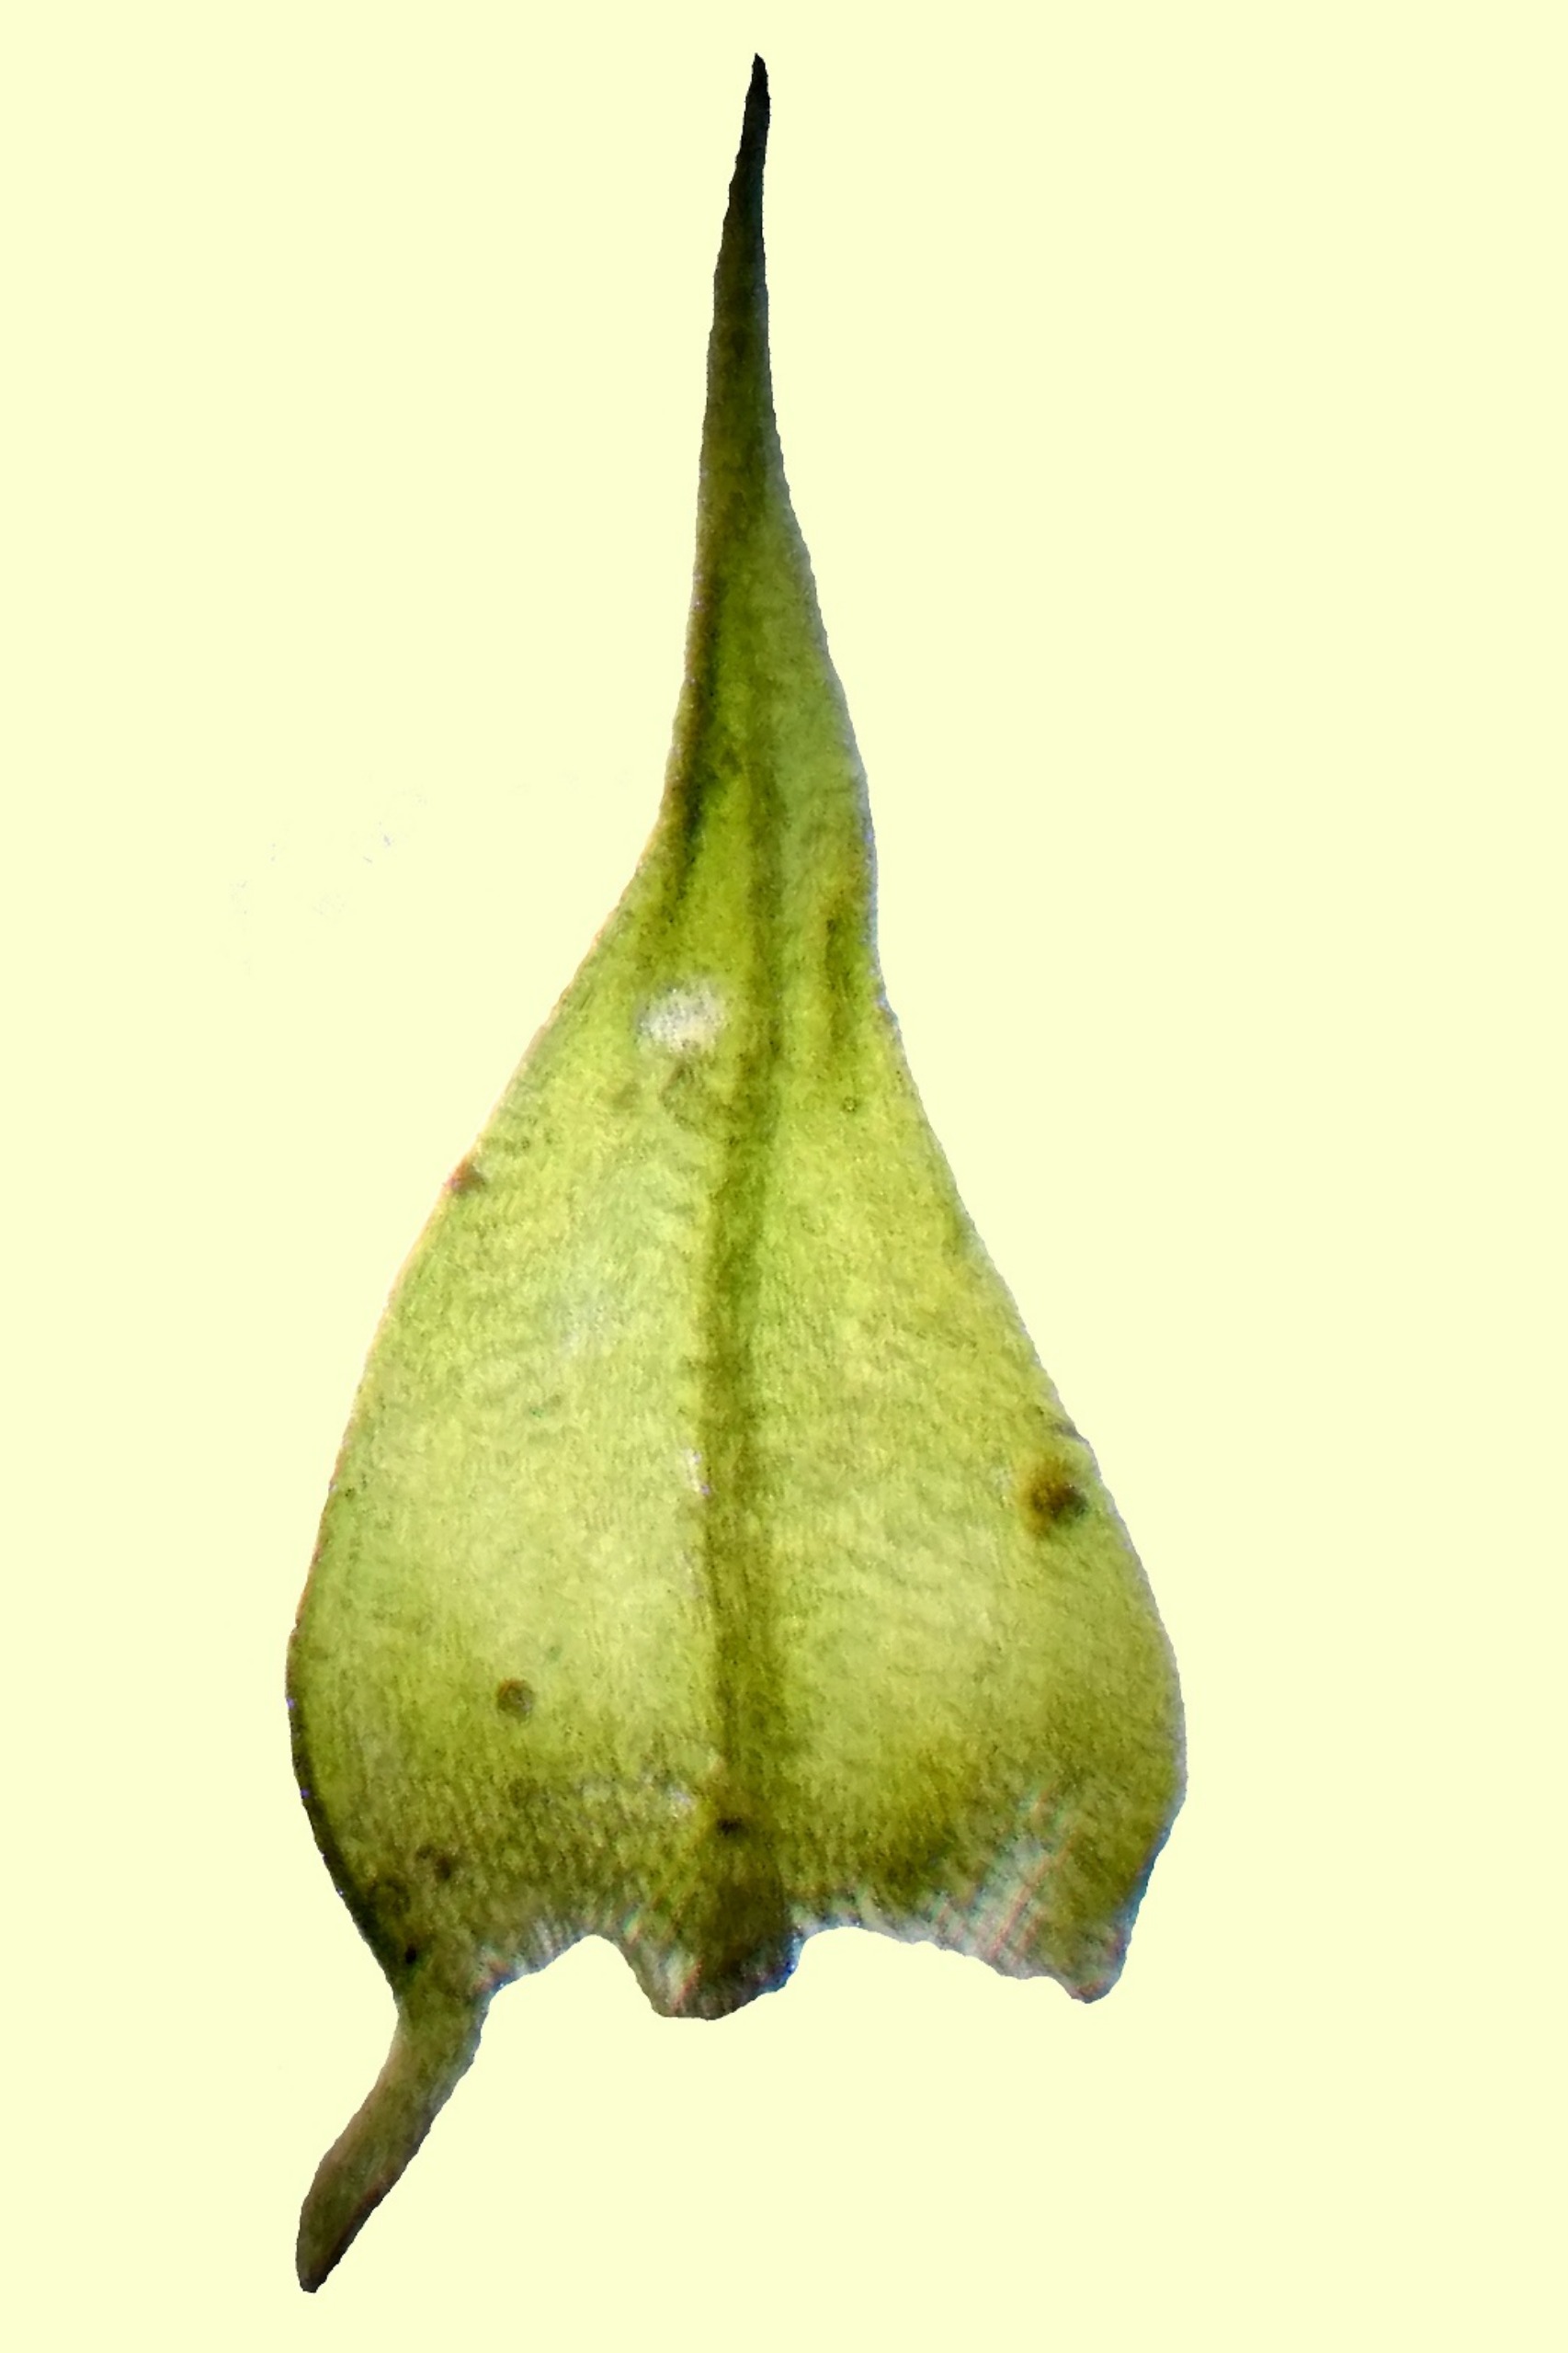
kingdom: Plantae
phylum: Bryophyta
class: Bryopsida
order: Hypnales
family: Brachytheciaceae
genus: Sciuro-hypnum
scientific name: Sciuro-hypnum reflexum
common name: Elle-kortkapsel
